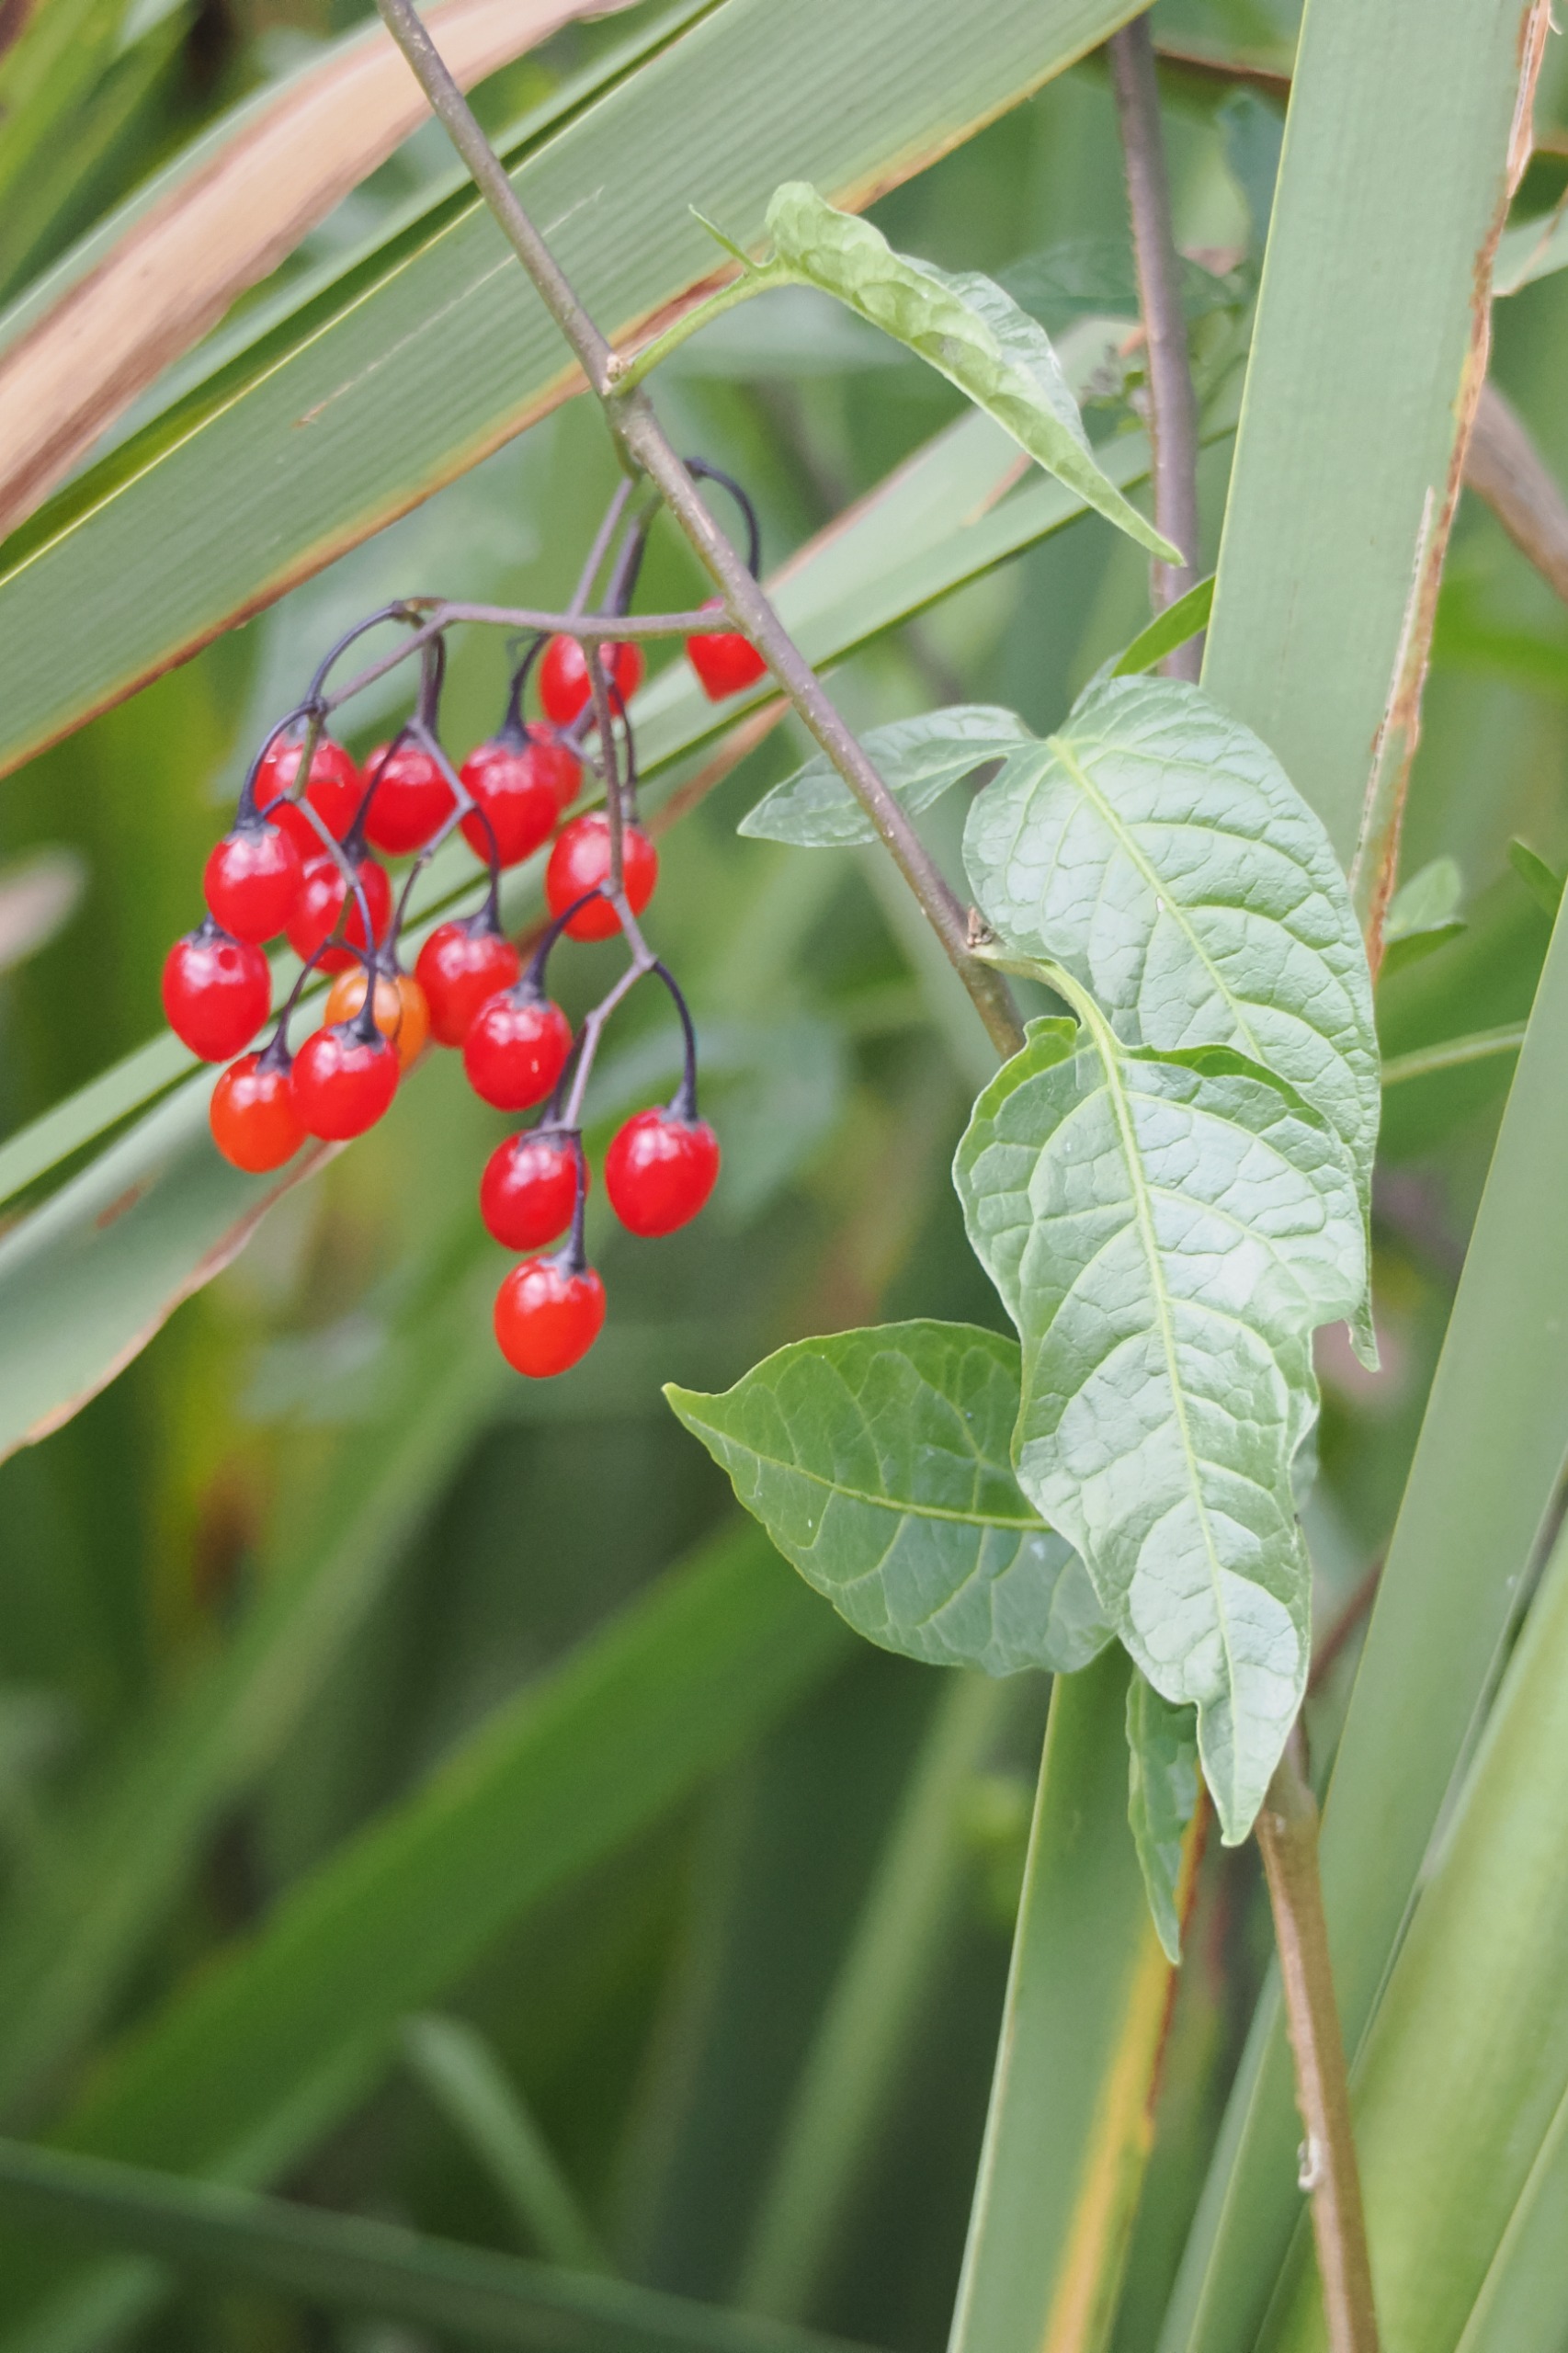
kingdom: Plantae
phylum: Tracheophyta
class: Magnoliopsida
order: Solanales
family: Solanaceae
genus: Solanum
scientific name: Solanum dulcamara
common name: Bittersød natskygge
